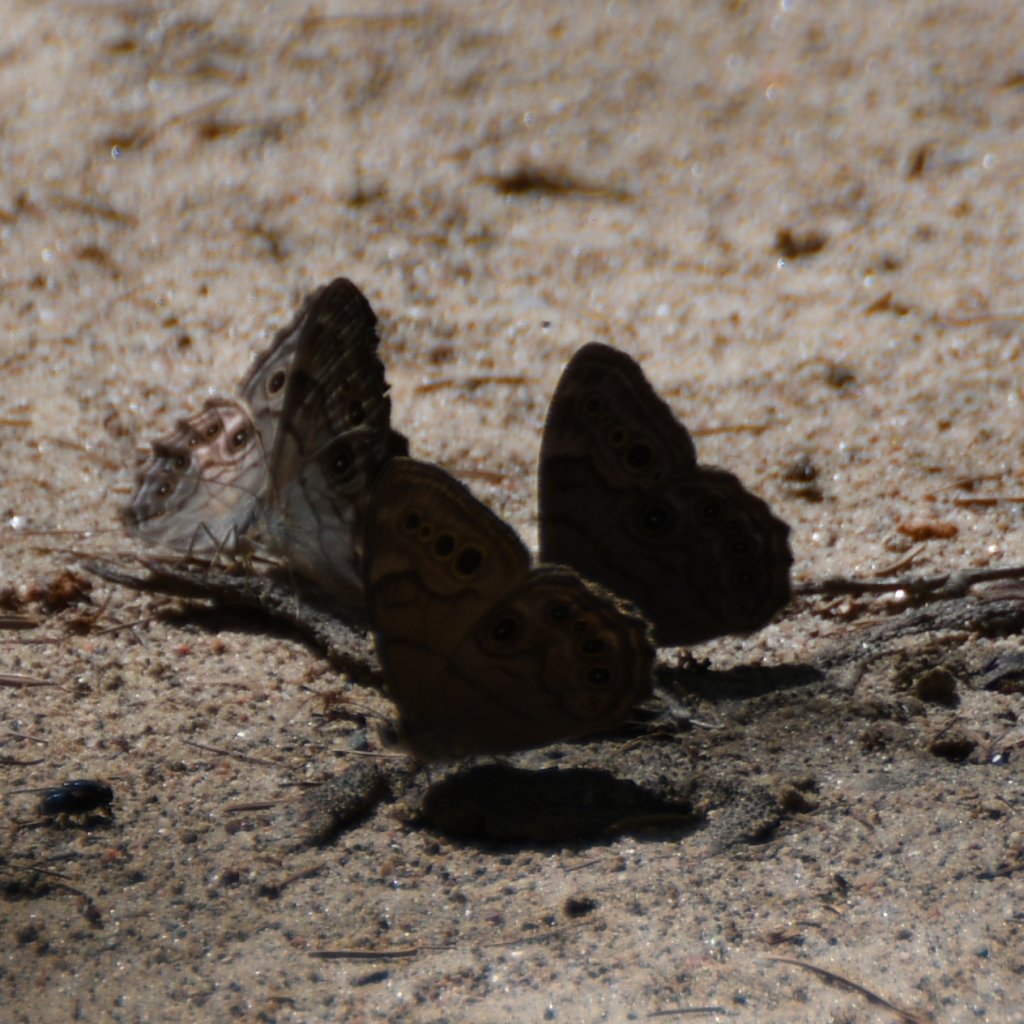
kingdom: Animalia
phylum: Arthropoda
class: Insecta
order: Lepidoptera
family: Nymphalidae
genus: Lethe
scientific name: Lethe anthedon
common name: Northern Pearly-Eye
